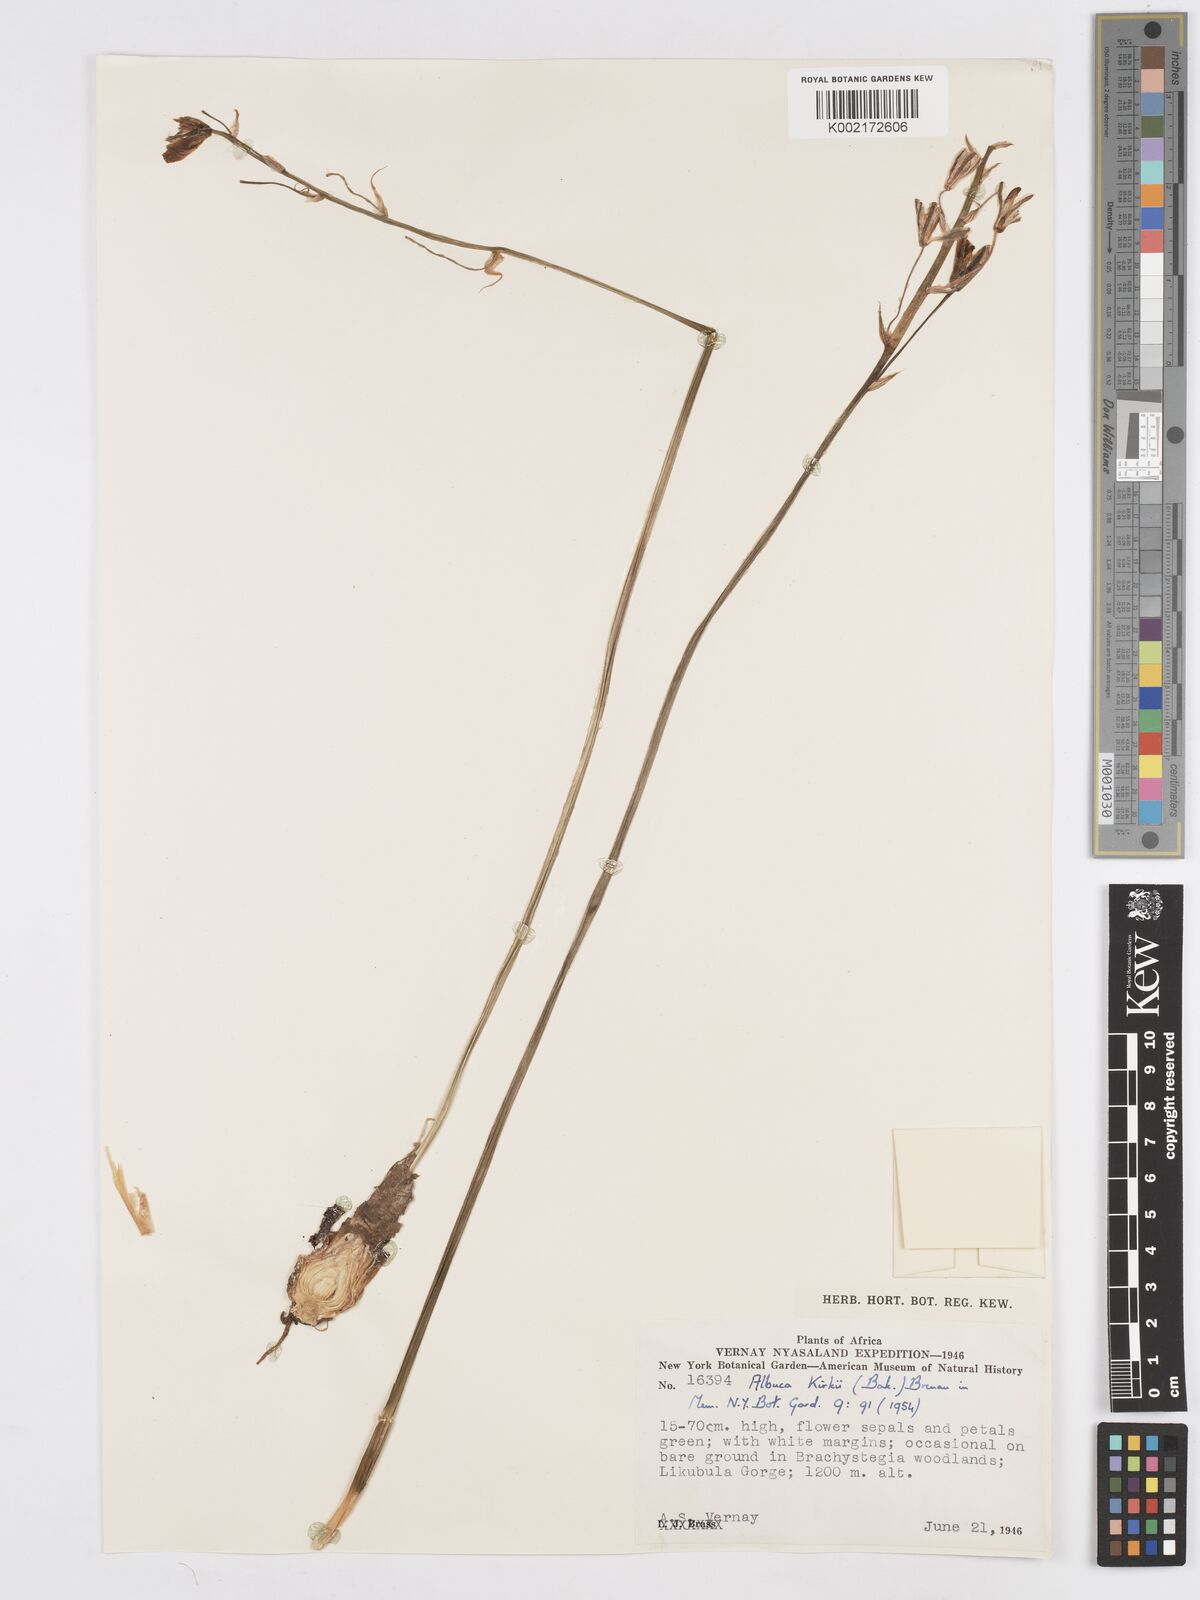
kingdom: Plantae
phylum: Tracheophyta
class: Liliopsida
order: Asparagales
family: Asparagaceae
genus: Albuca
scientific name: Albuca kirkii
